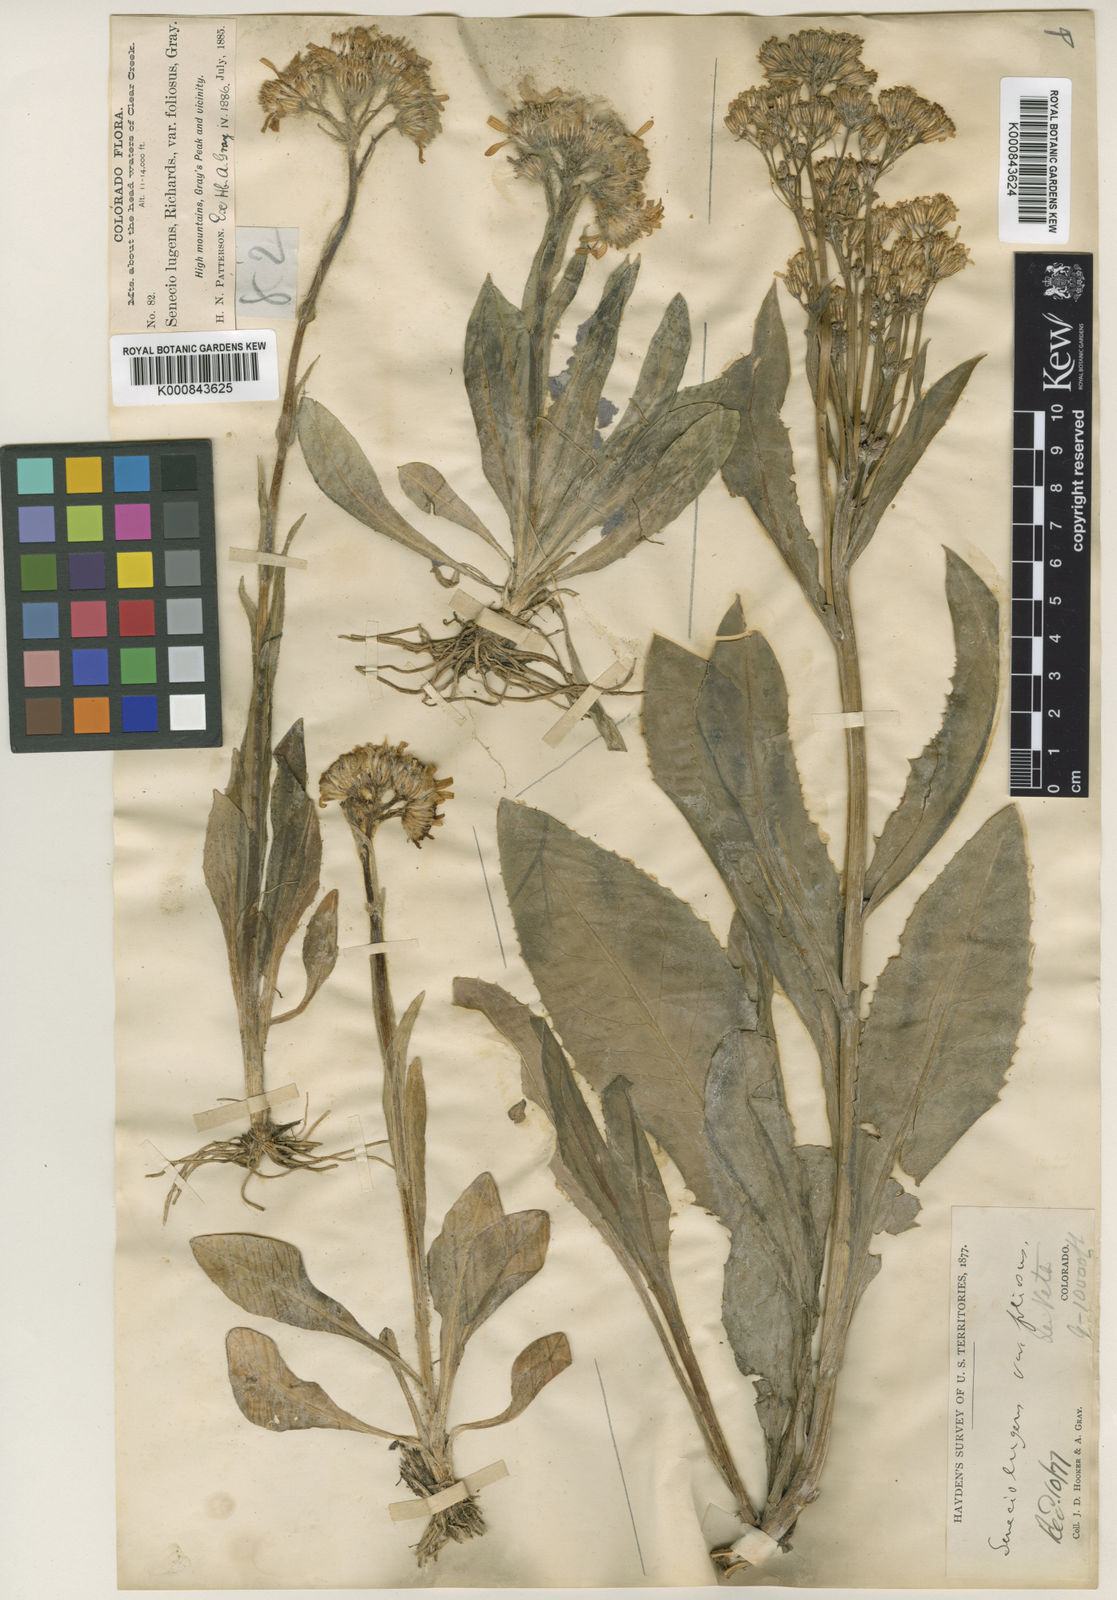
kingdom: Plantae
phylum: Tracheophyta
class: Magnoliopsida
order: Asterales
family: Asteraceae
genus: Senecio
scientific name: Senecio lugens
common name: Black-tip groundsel
